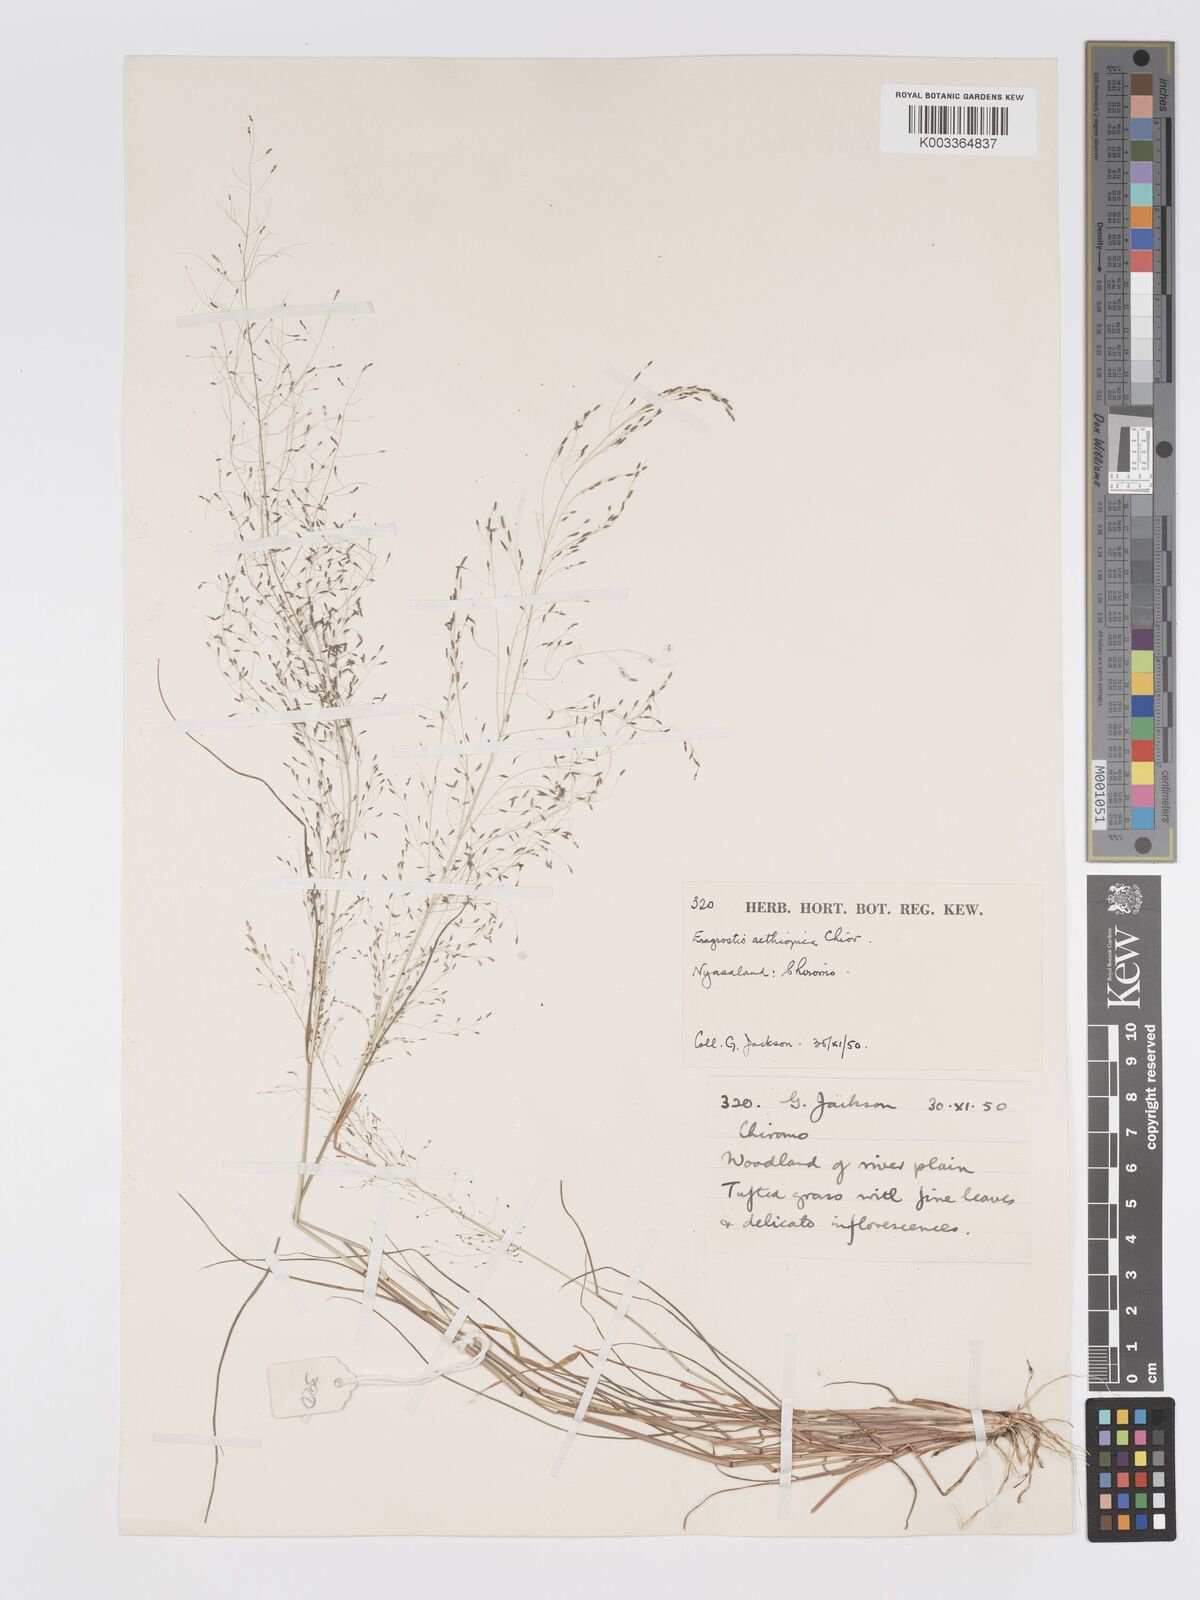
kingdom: Plantae
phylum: Tracheophyta
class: Liliopsida
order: Poales
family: Poaceae
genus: Eragrostis
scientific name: Eragrostis aethiopica
